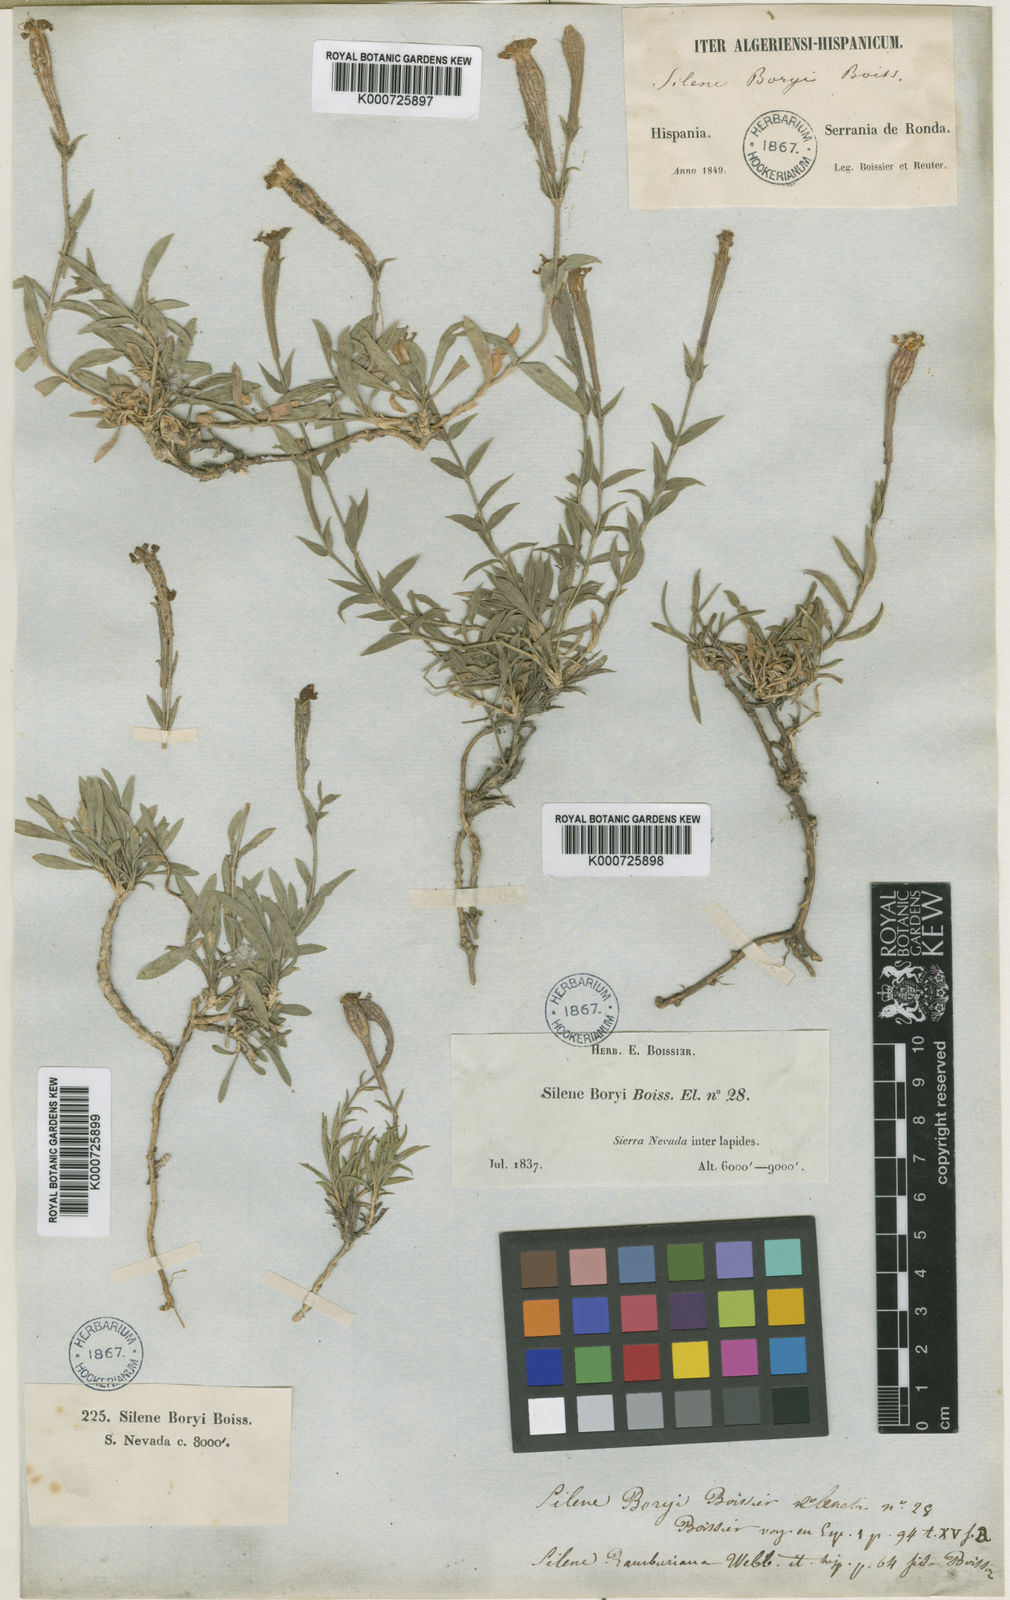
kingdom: Plantae
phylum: Tracheophyta
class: Magnoliopsida
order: Caryophyllales
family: Caryophyllaceae
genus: Silene
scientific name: Silene boryi
